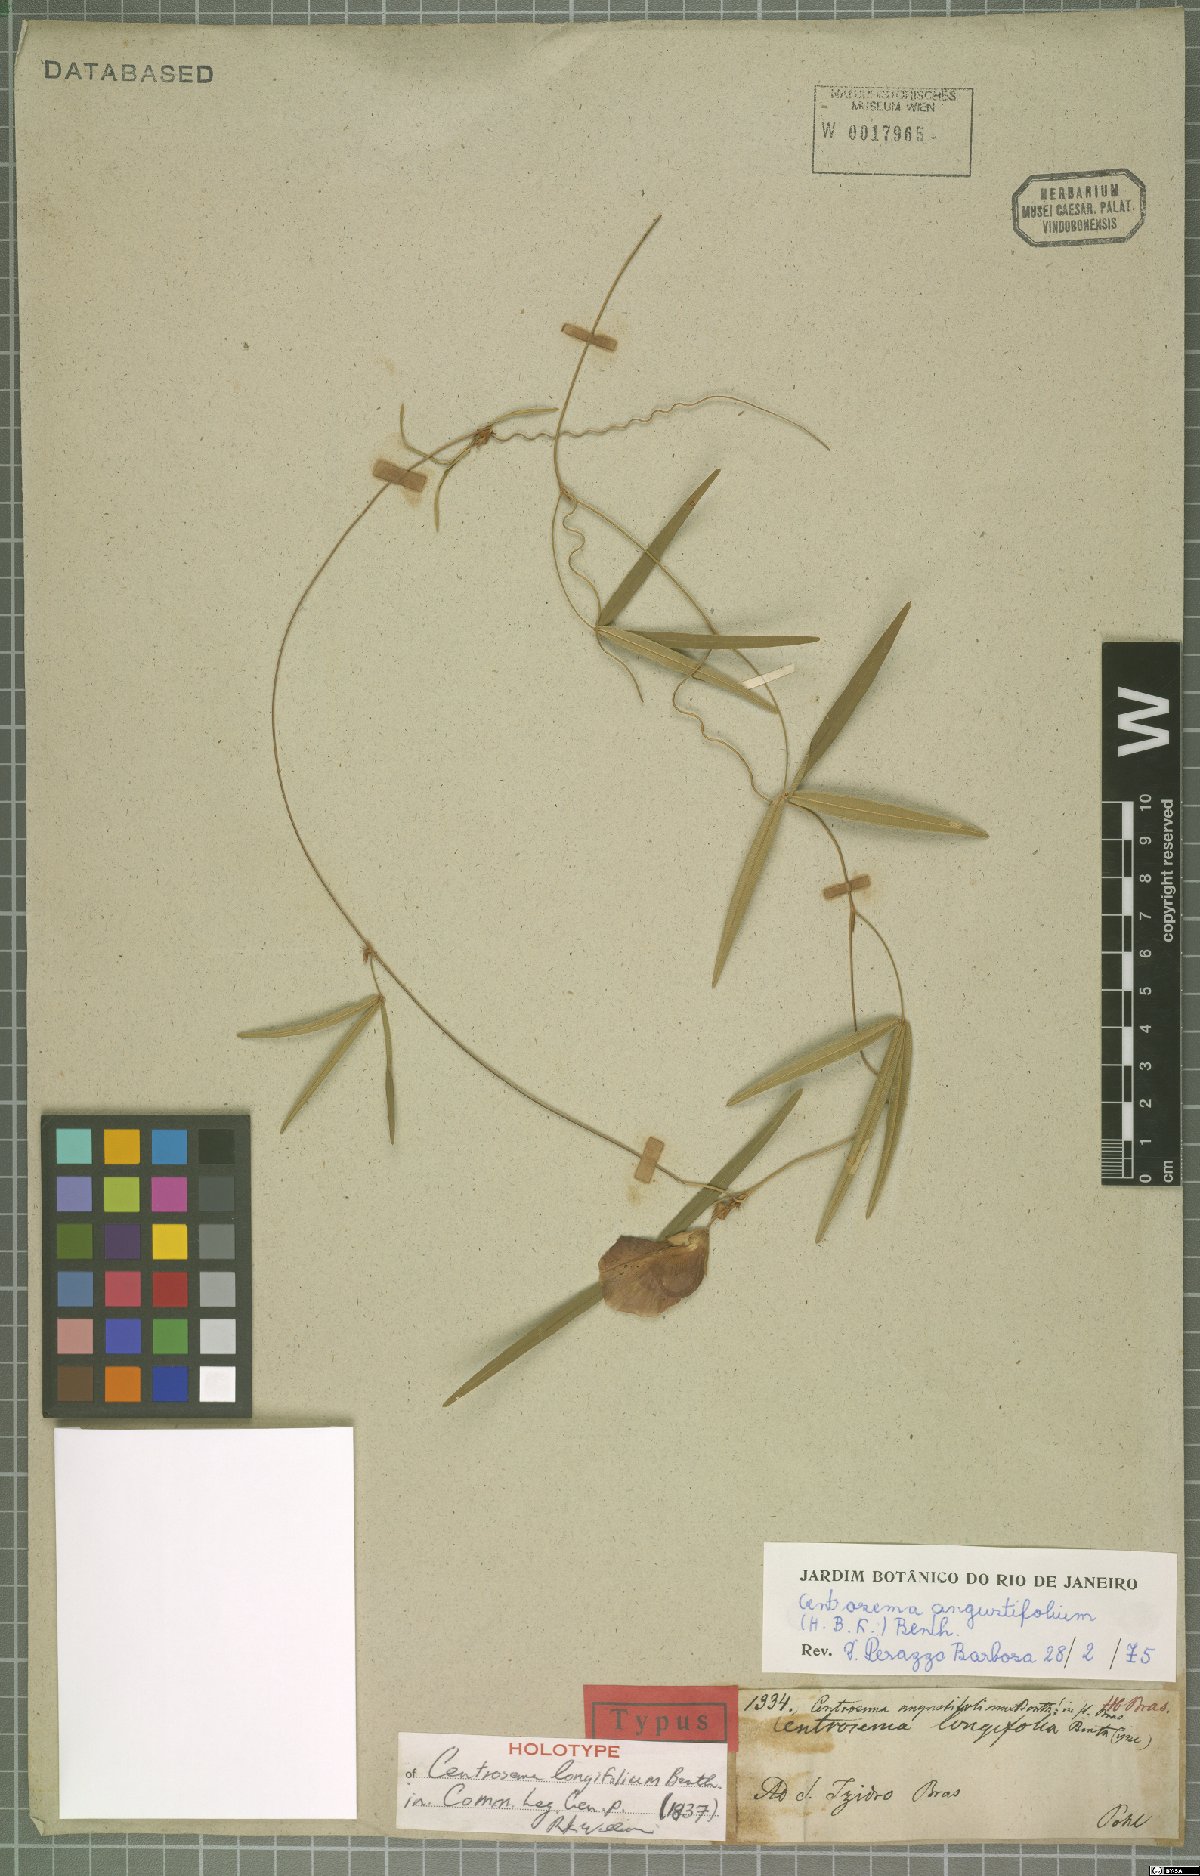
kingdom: Plantae
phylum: Tracheophyta
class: Magnoliopsida
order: Fabales
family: Fabaceae
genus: Centrosema
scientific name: Centrosema angustifolium
